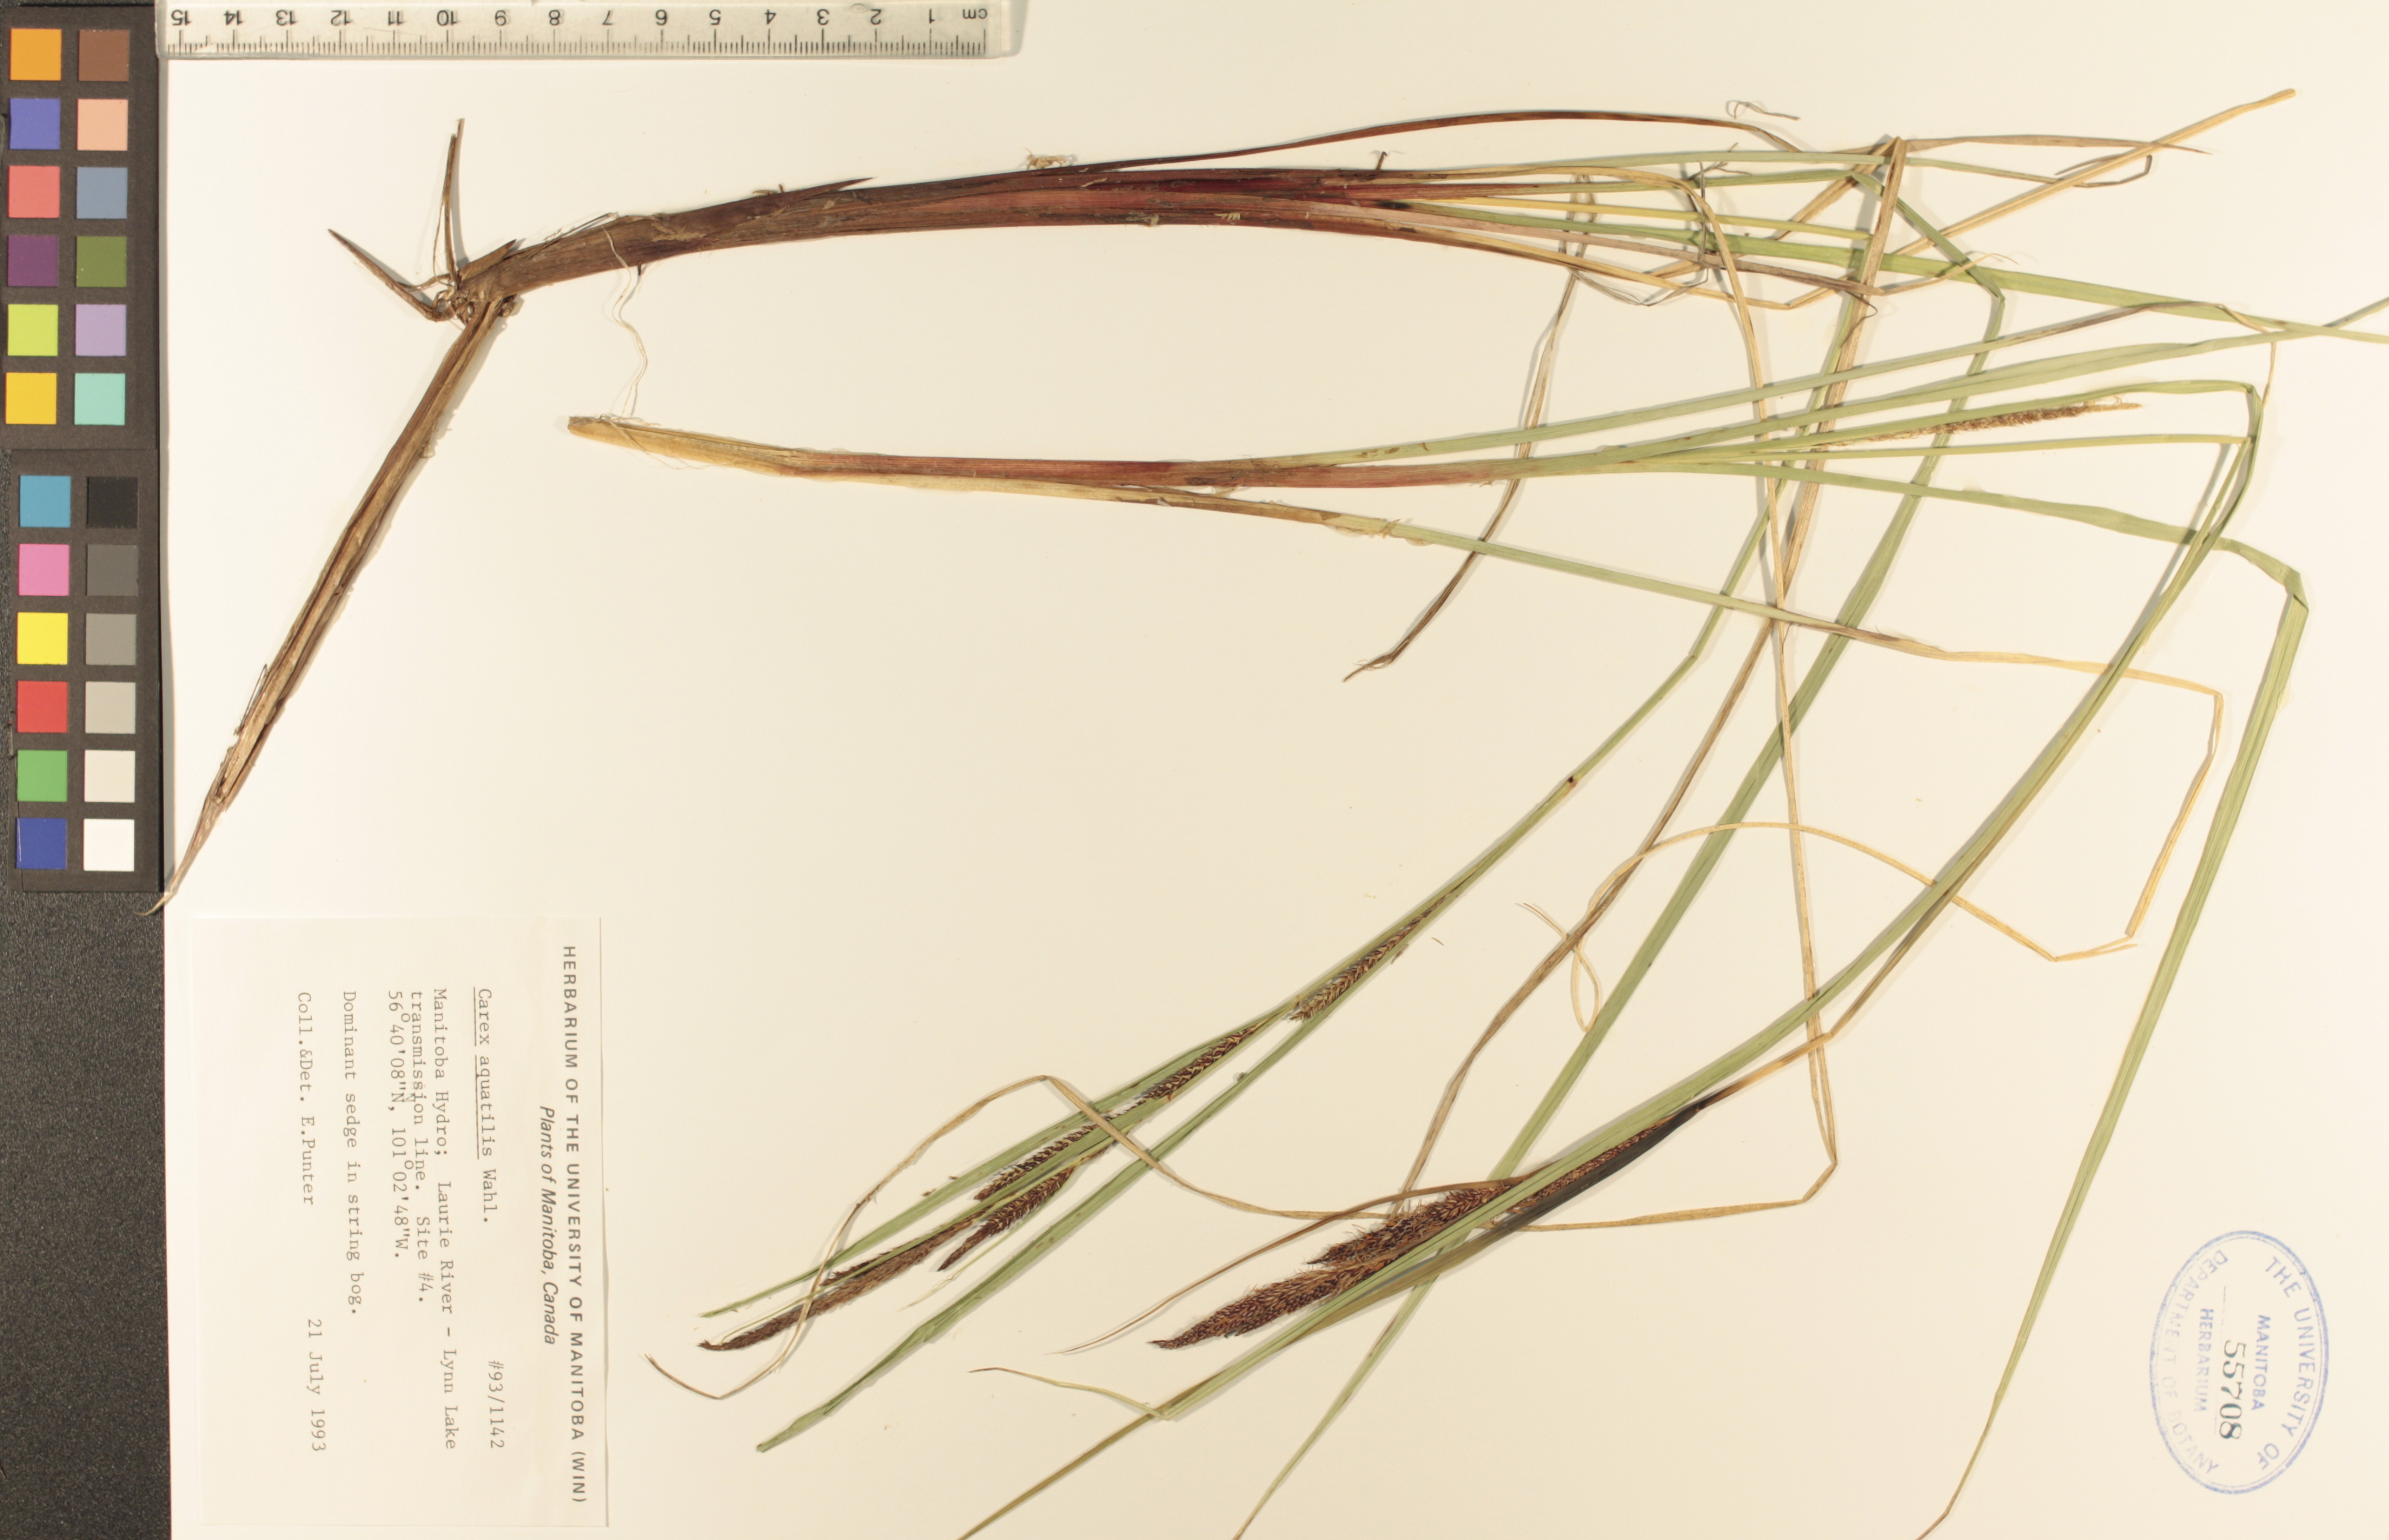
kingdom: Plantae
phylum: Tracheophyta
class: Liliopsida
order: Poales
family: Cyperaceae
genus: Carex
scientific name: Carex aquatilis
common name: Water sedge
